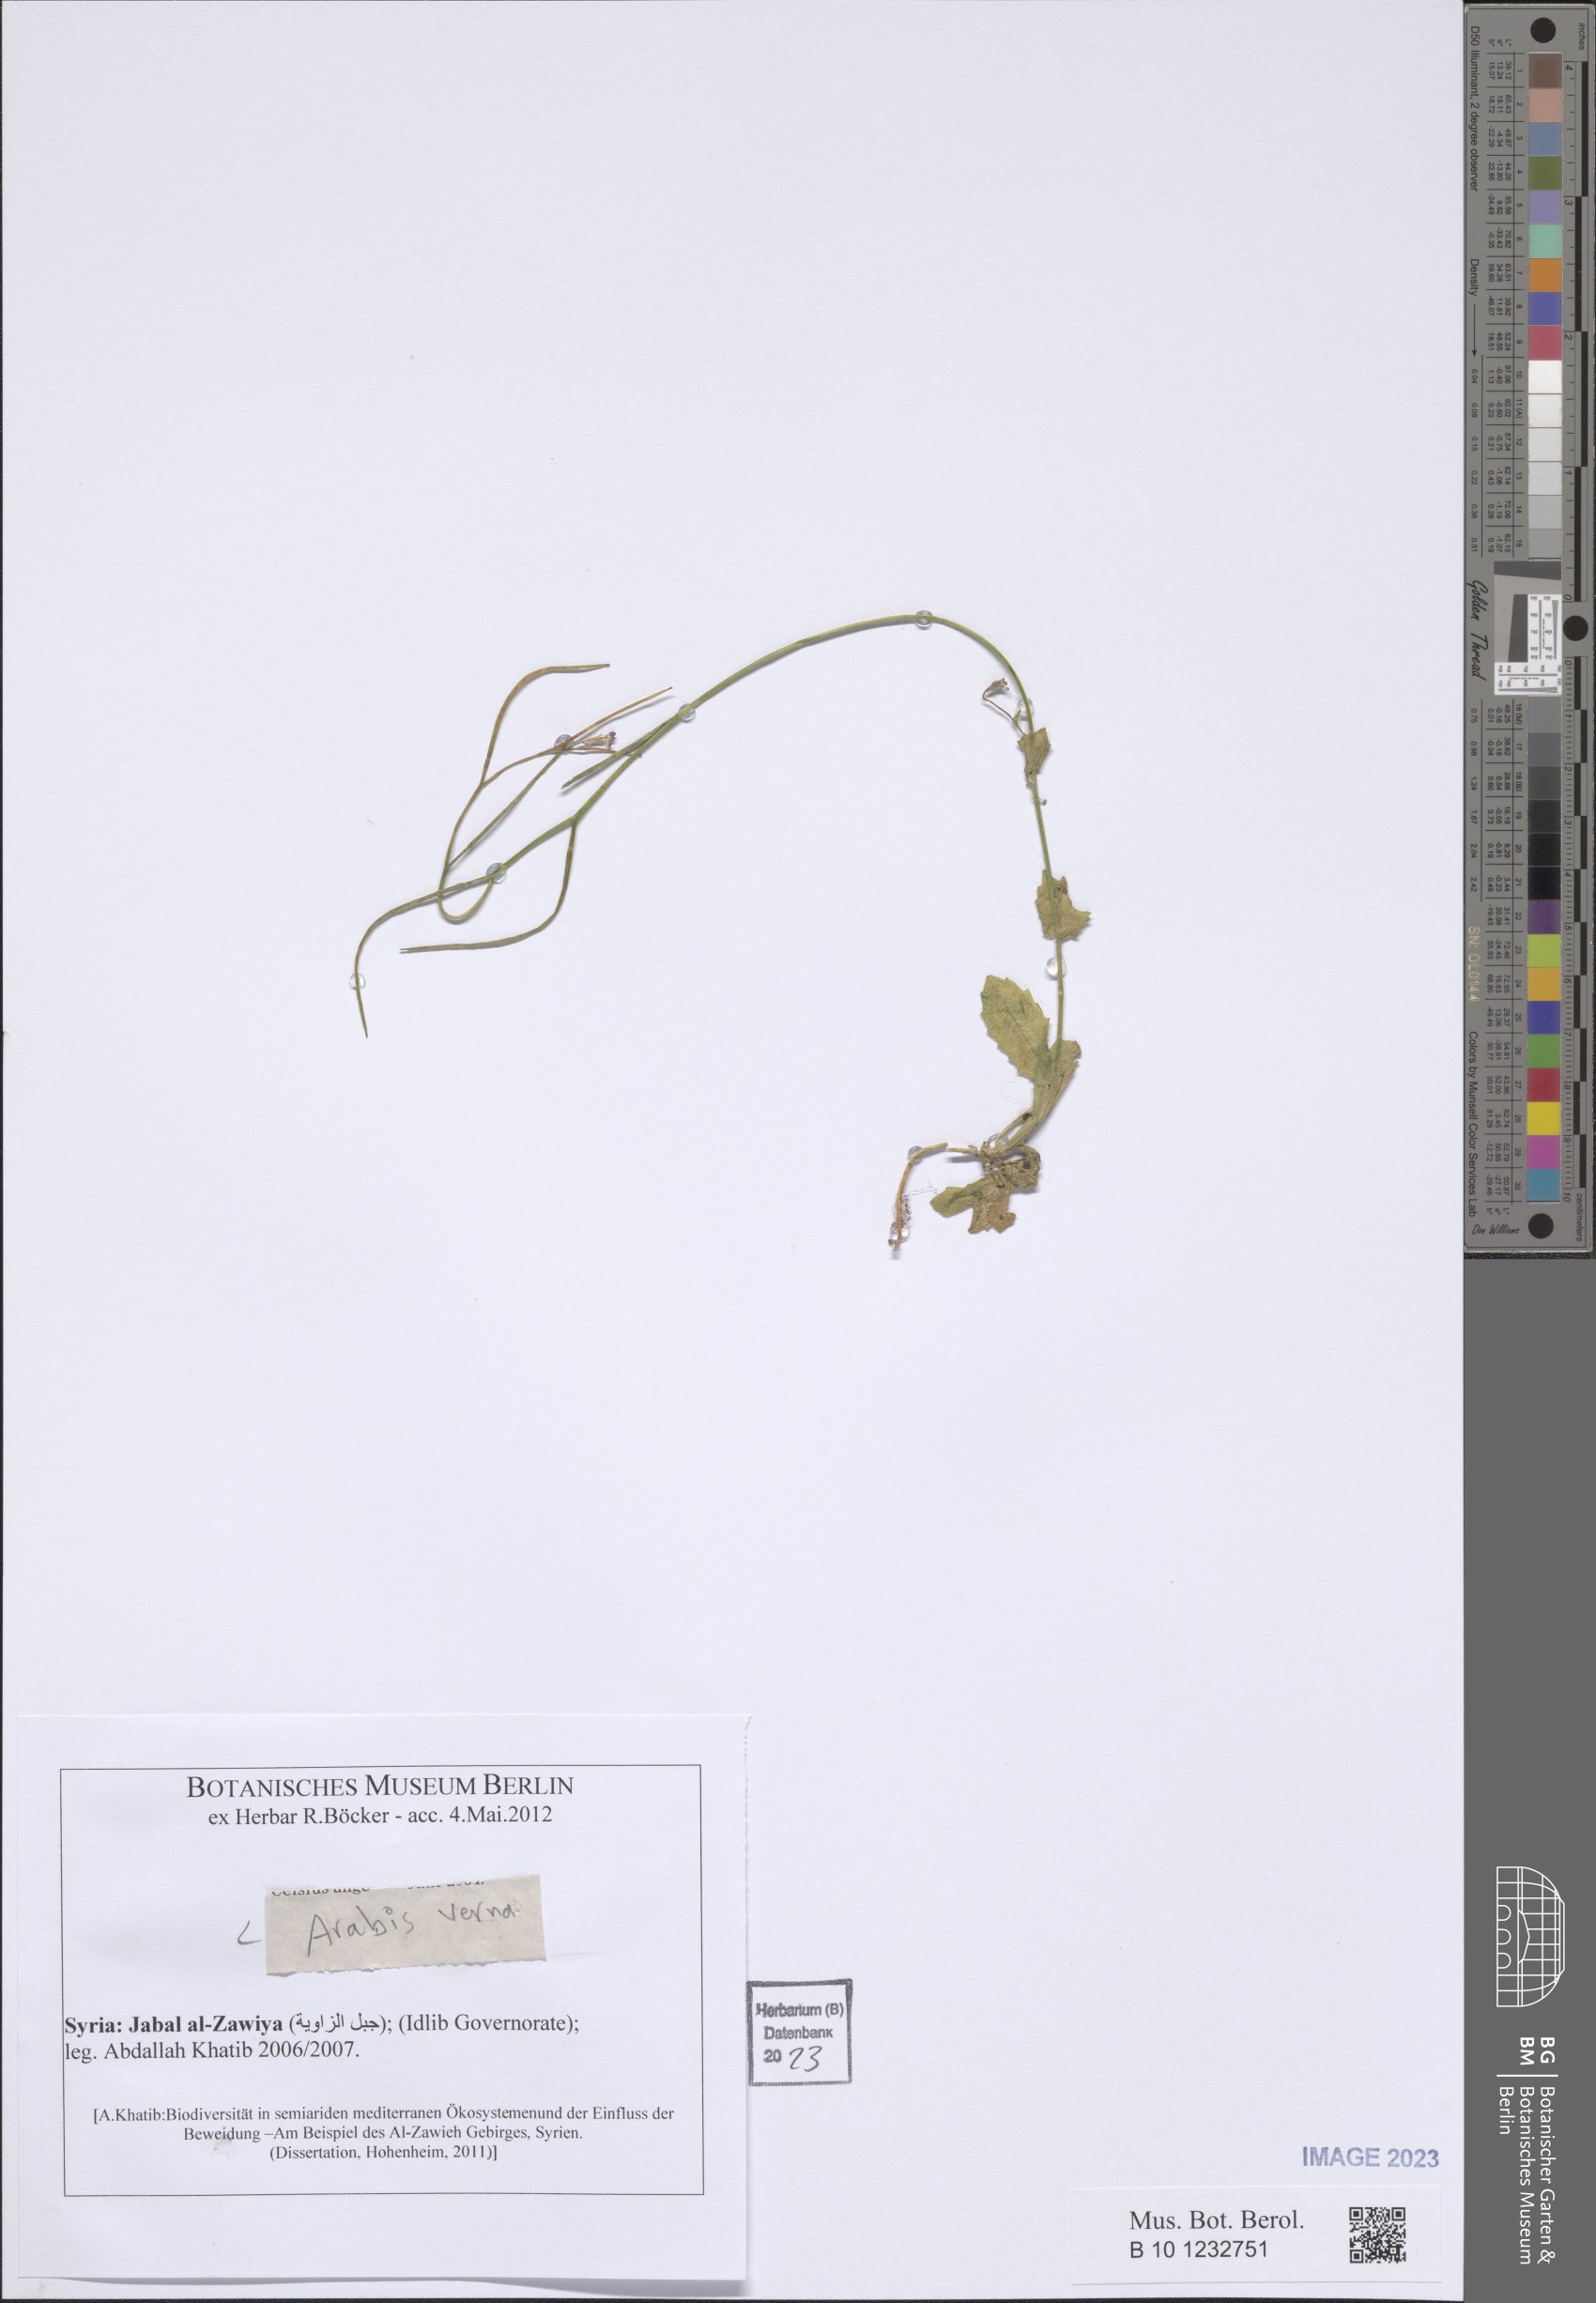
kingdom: Plantae
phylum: Tracheophyta
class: Magnoliopsida
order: Brassicales
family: Brassicaceae
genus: Arabis
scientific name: Arabis verna
